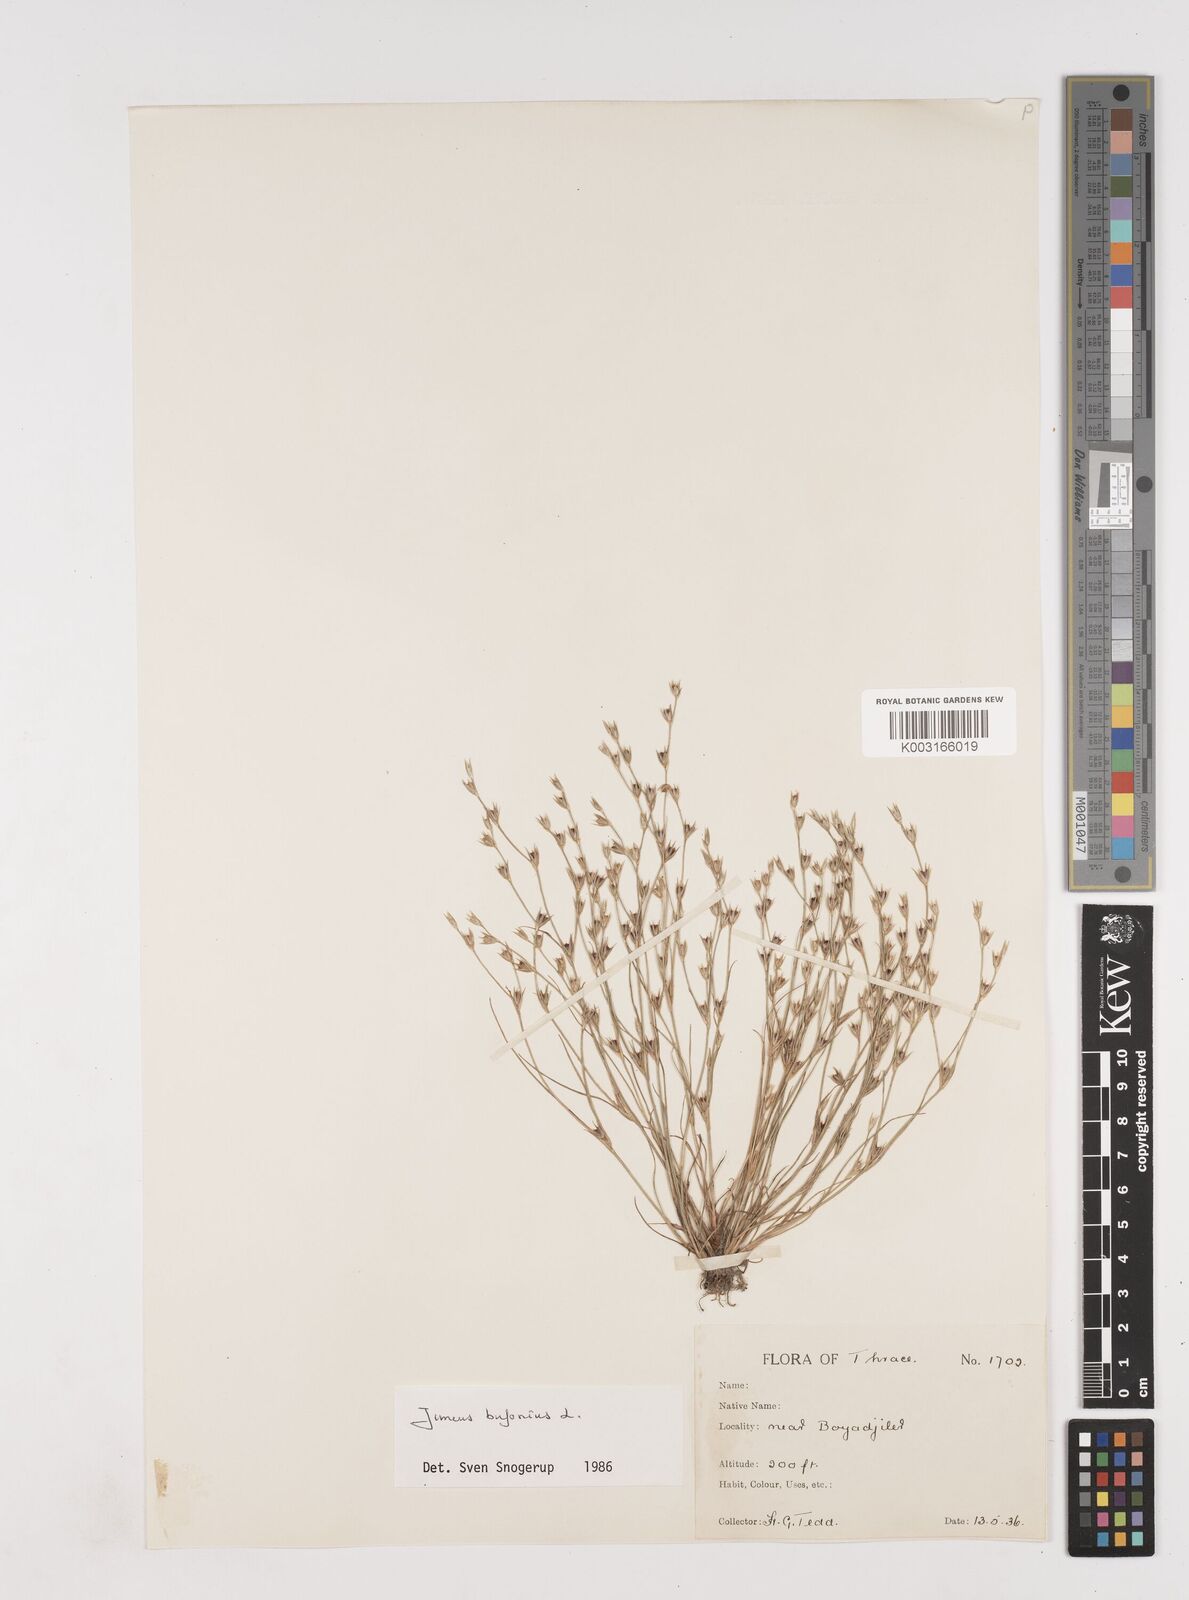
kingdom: Plantae
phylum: Tracheophyta
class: Liliopsida
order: Poales
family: Juncaceae
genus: Juncus
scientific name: Juncus bufonius
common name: Toad rush
